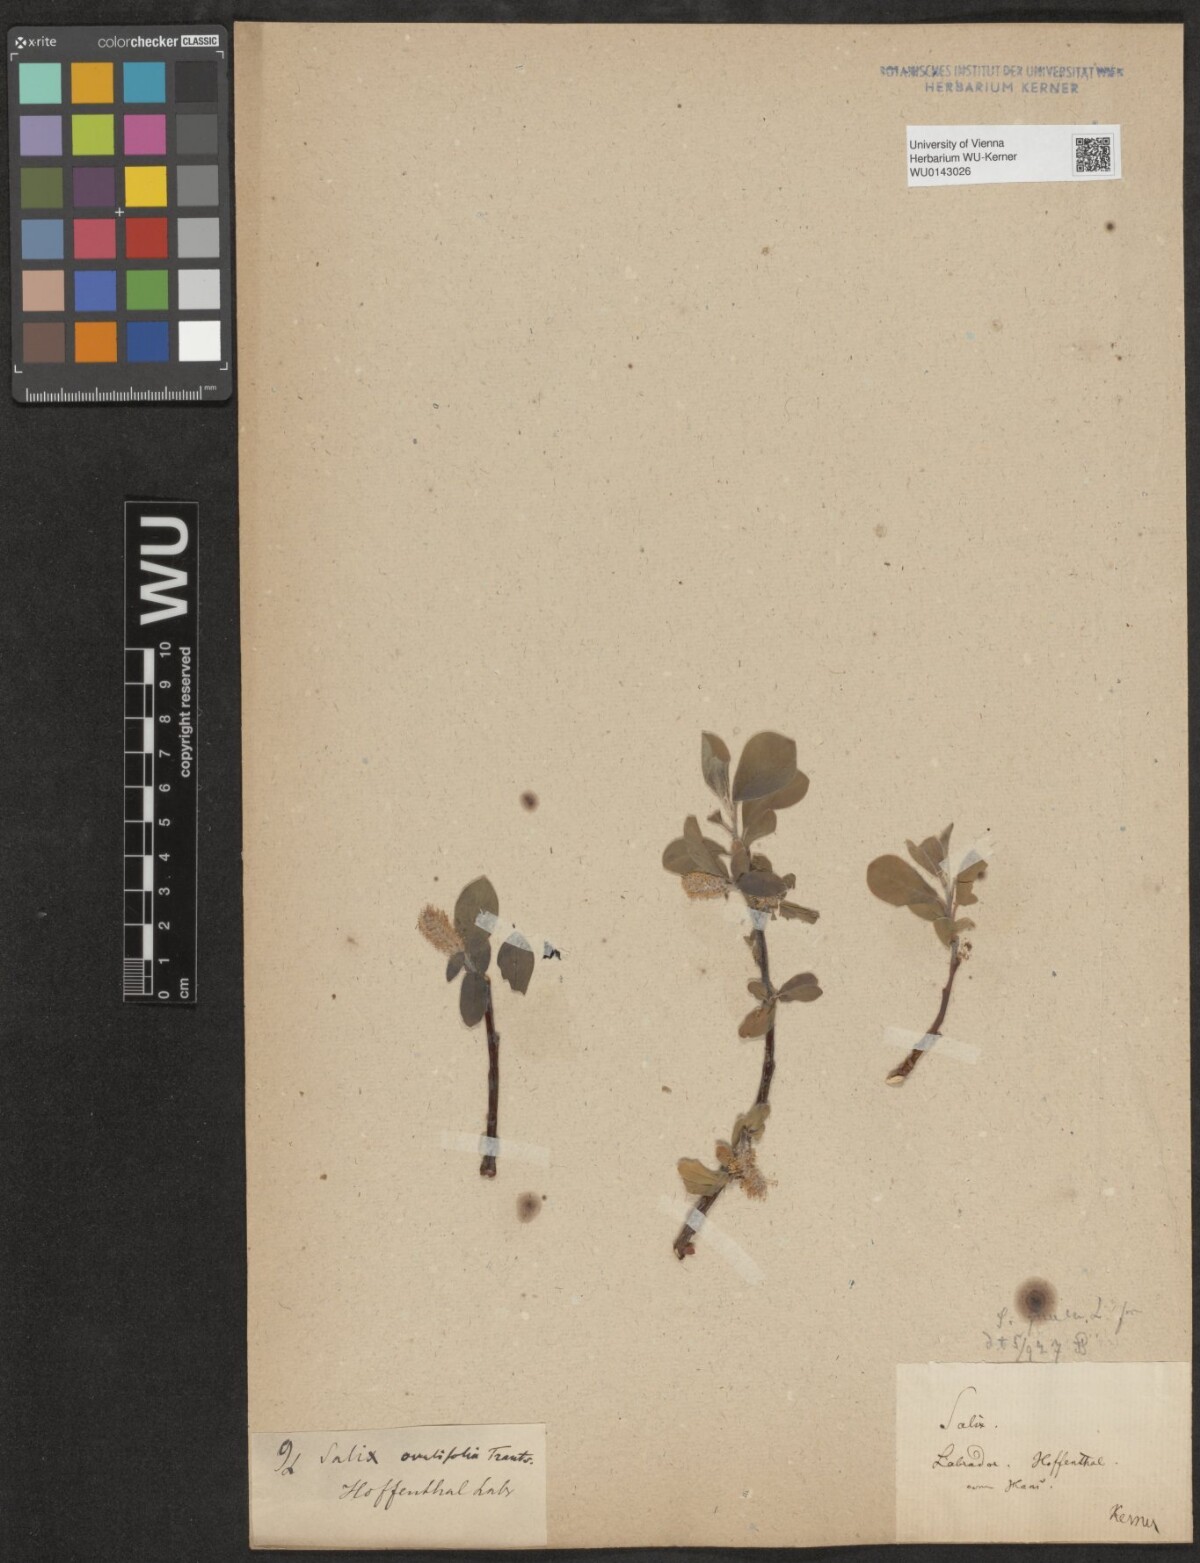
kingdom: Plantae
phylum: Tracheophyta
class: Magnoliopsida
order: Malpighiales
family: Salicaceae
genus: Salix
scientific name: Salix ovalifolia
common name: Arctic seashore willow
